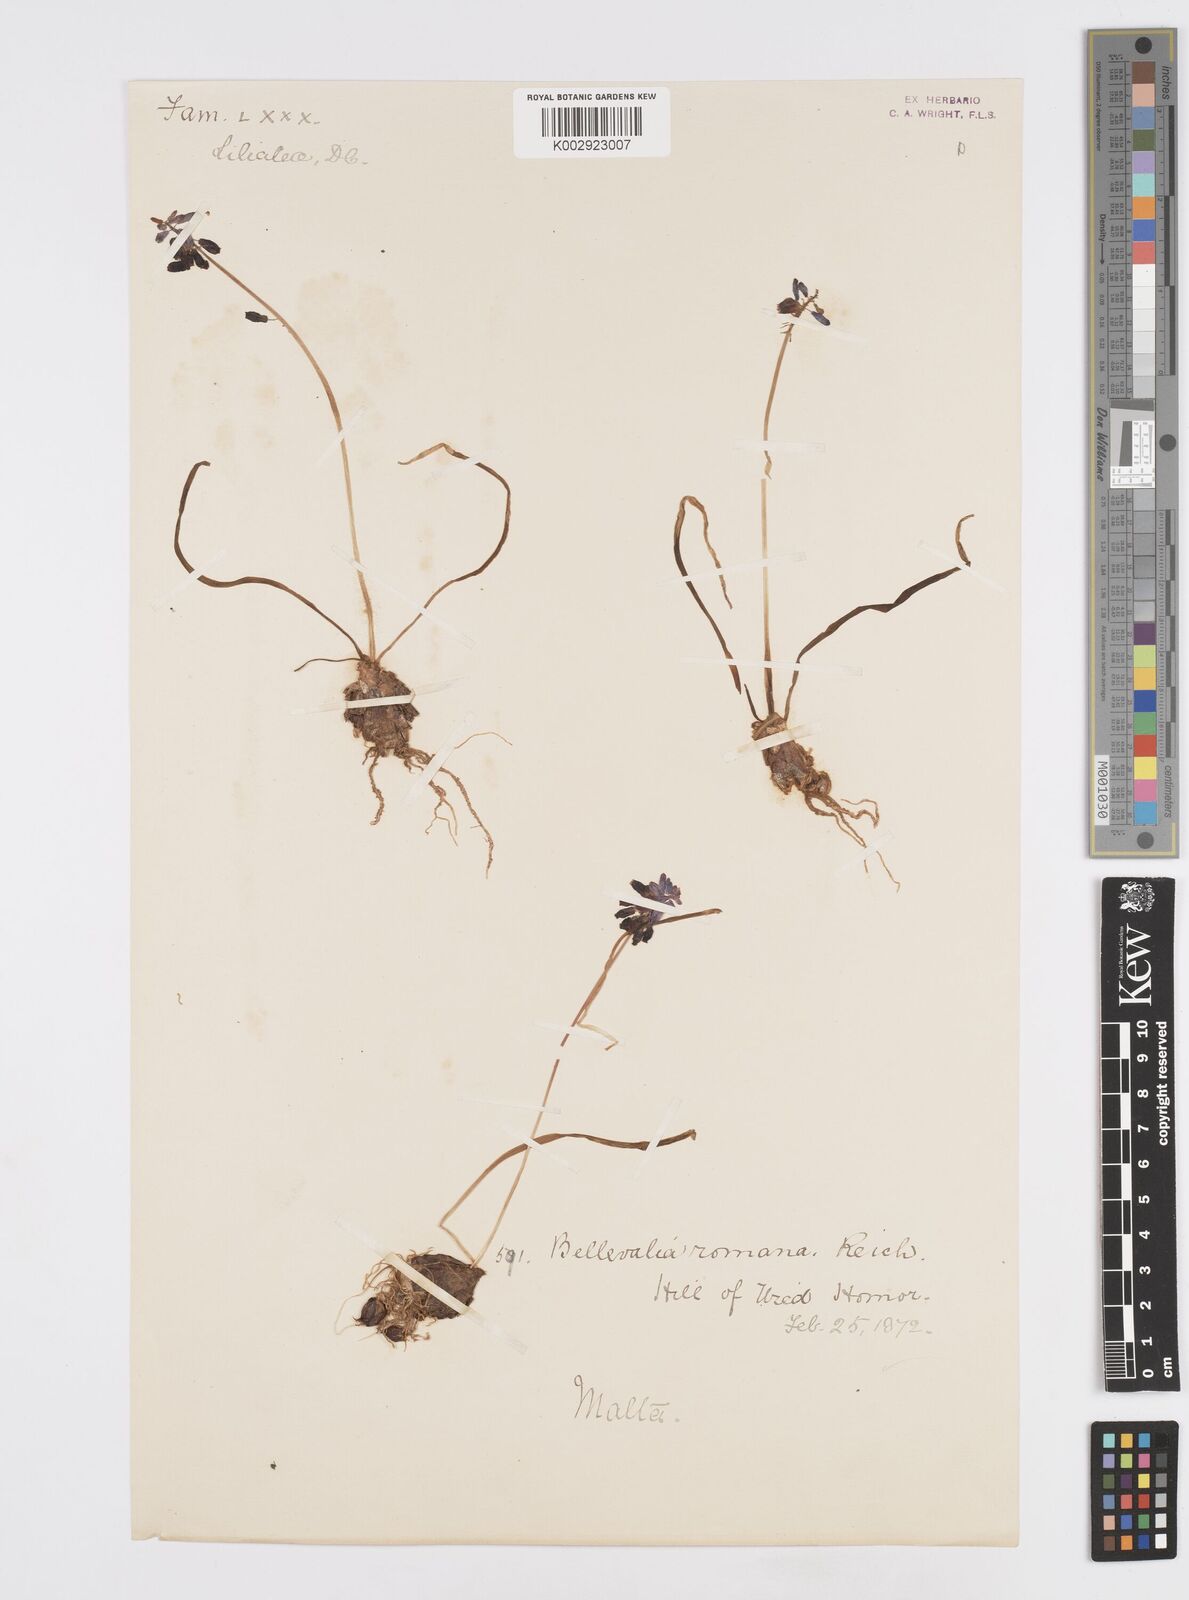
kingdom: Plantae
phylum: Tracheophyta
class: Liliopsida
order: Asparagales
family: Asparagaceae
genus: Muscarimia
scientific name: Muscarimia muscari
